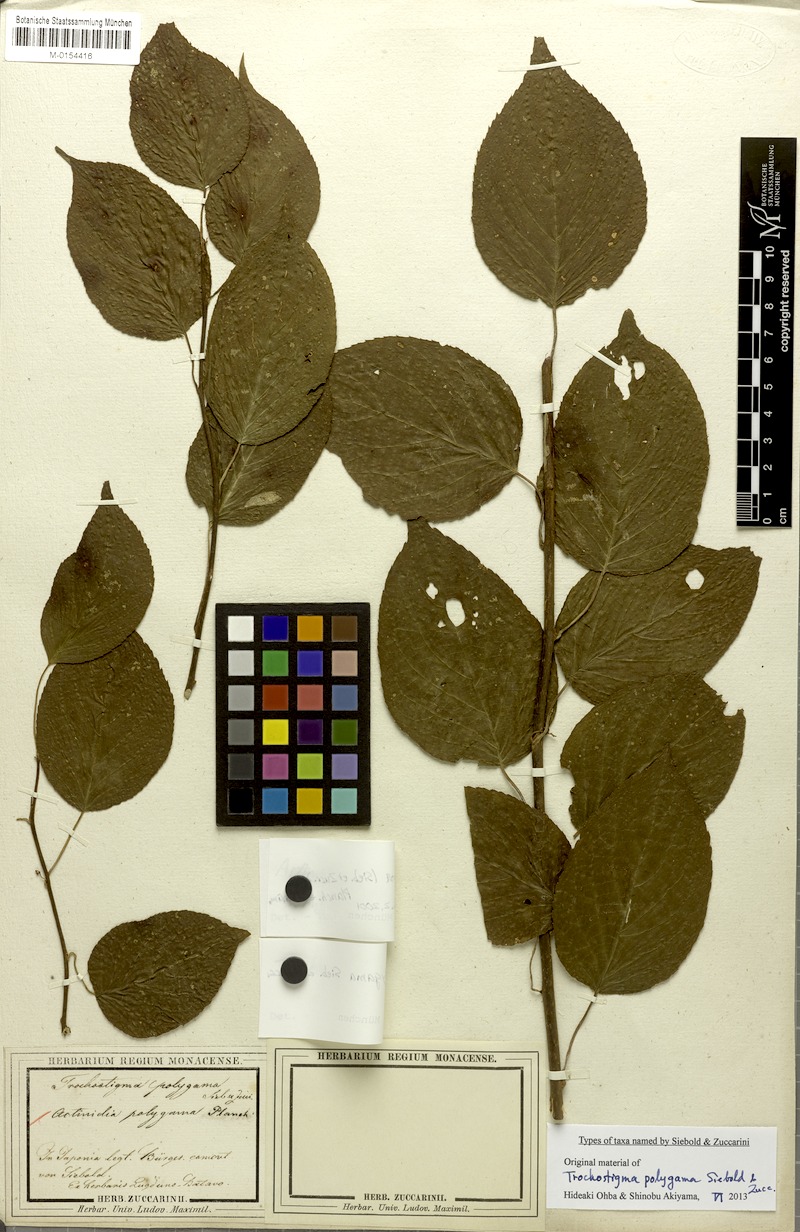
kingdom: Plantae
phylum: Tracheophyta
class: Magnoliopsida
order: Ericales
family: Actinidiaceae
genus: Actinidia
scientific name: Actinidia polygama
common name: Silver vine
